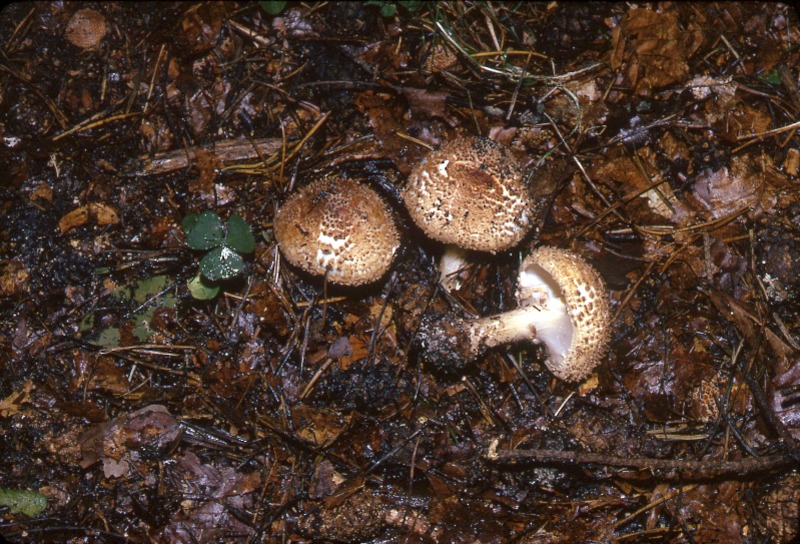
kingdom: Fungi
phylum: Basidiomycota
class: Agaricomycetes
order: Agaricales
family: Agaricaceae
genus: Echinoderma
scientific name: Echinoderma asperum
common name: Freckled dapperling
